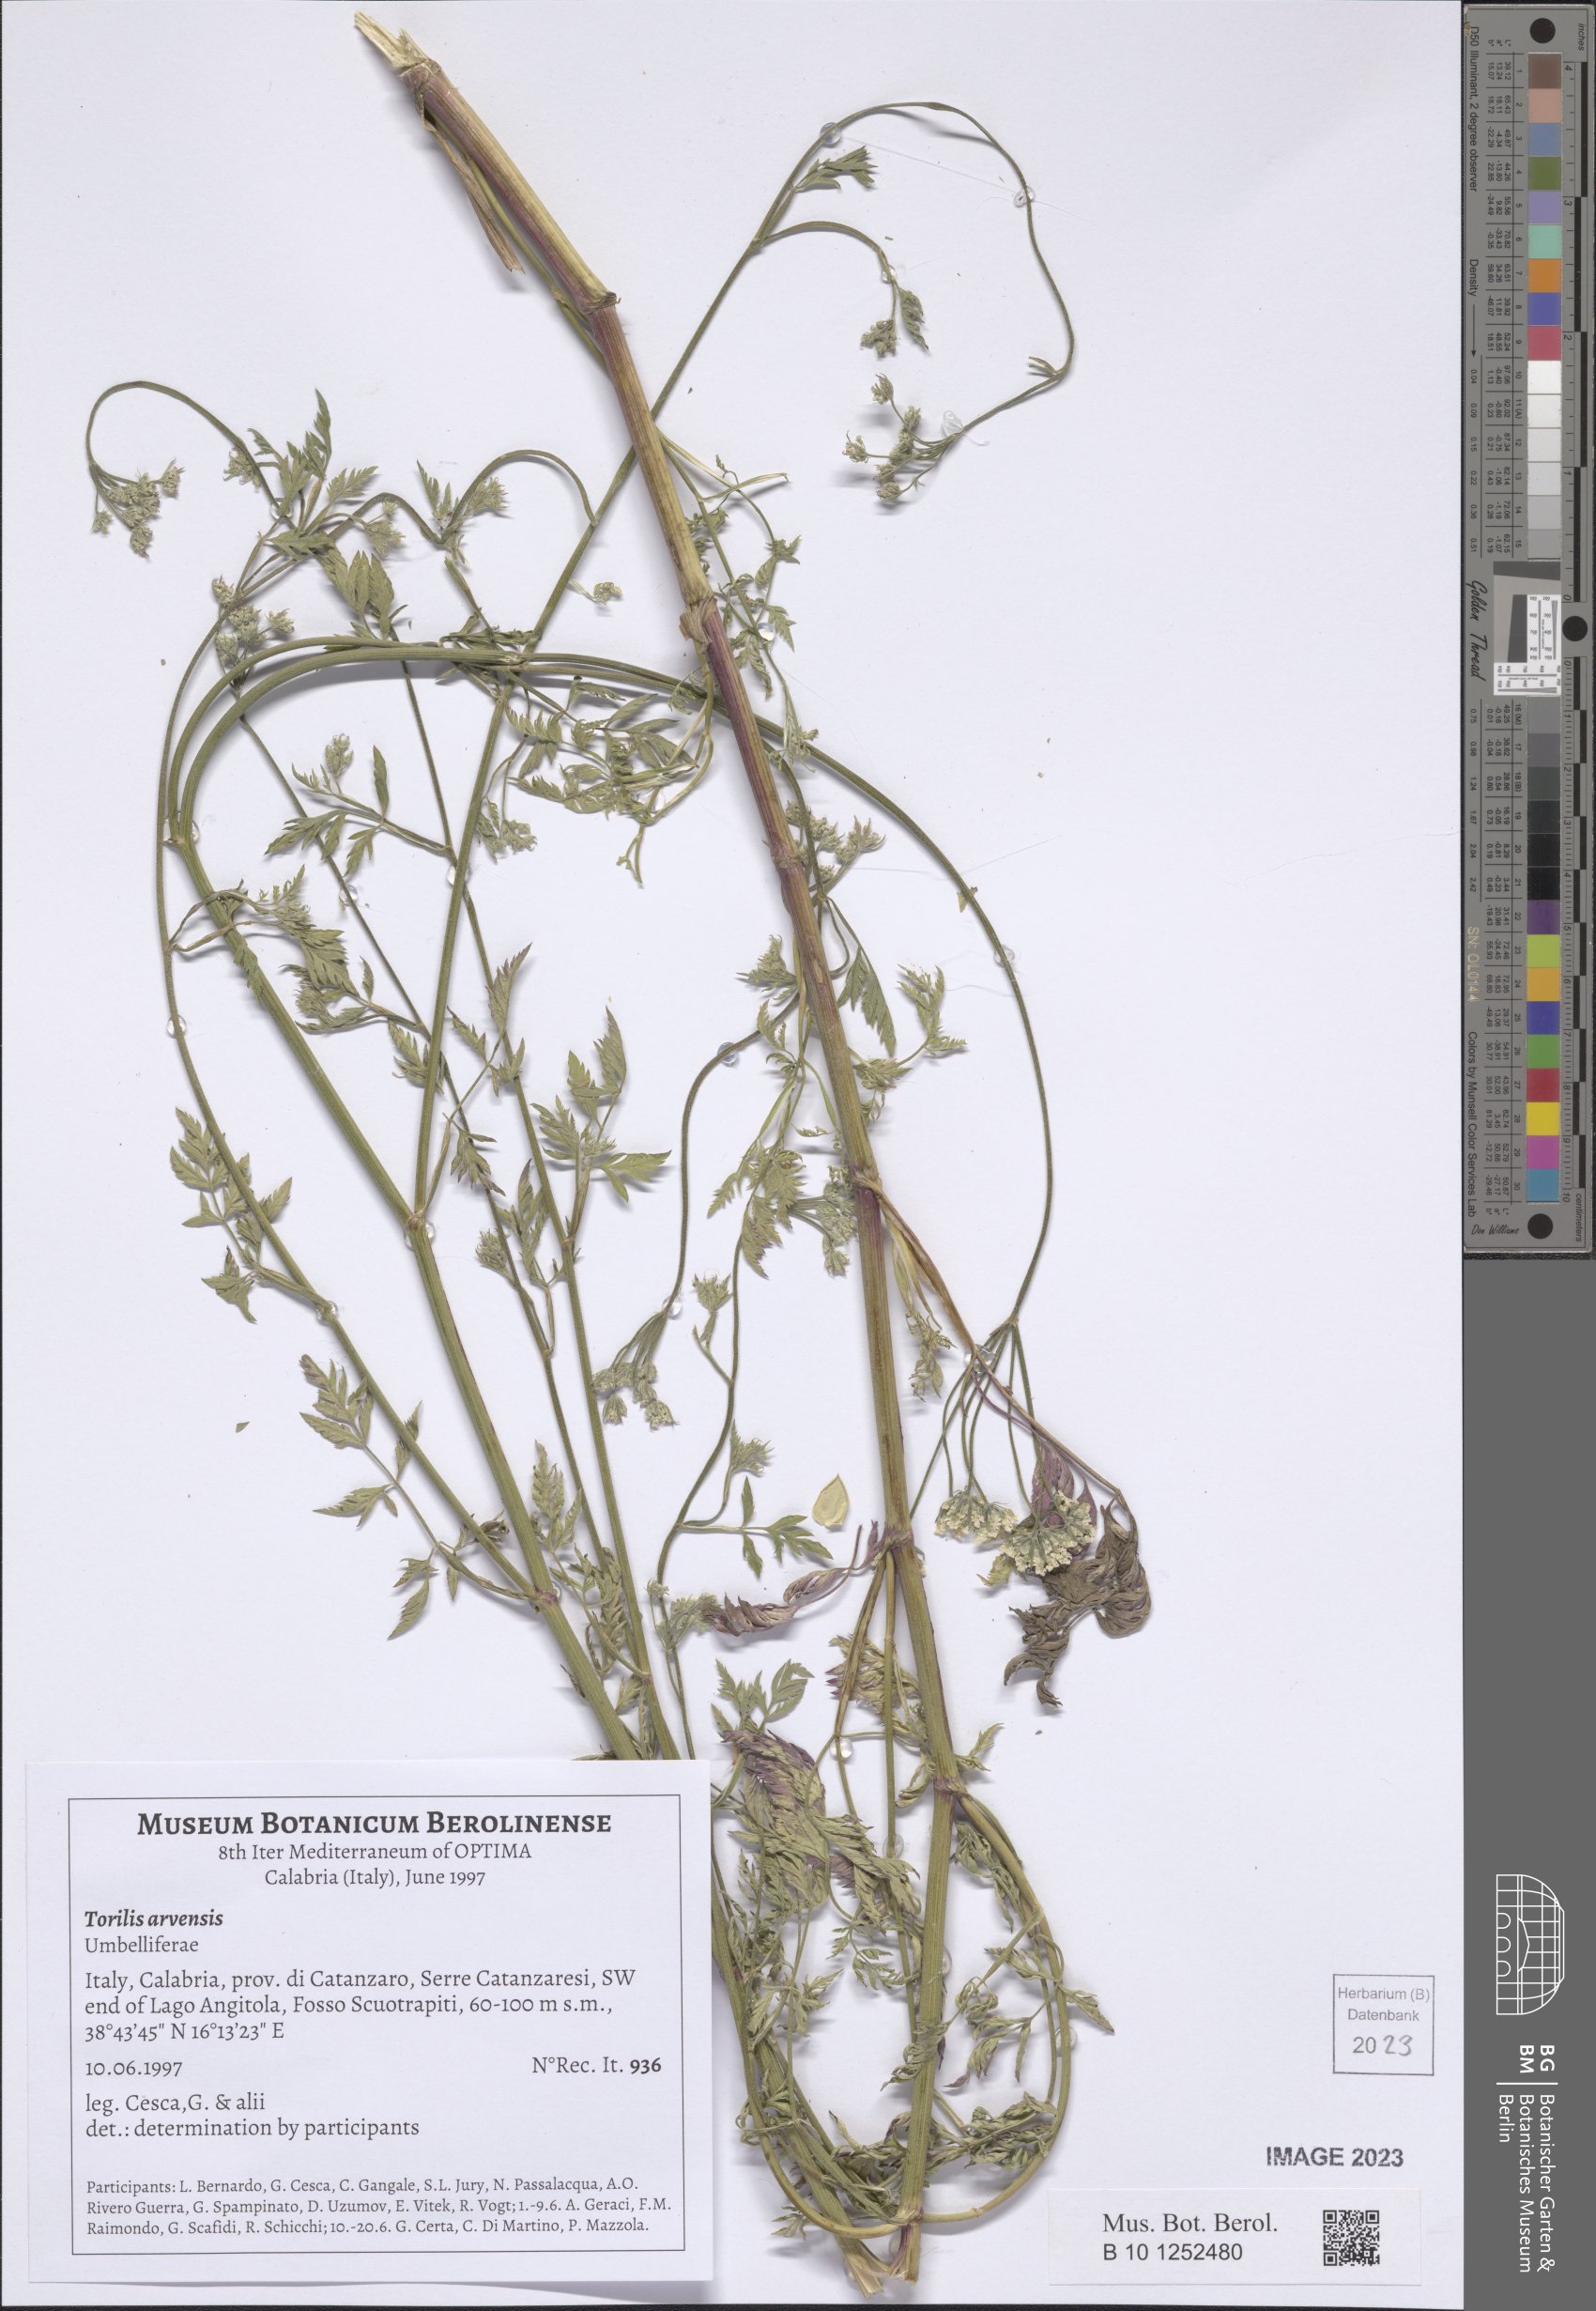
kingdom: Plantae
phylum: Tracheophyta
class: Magnoliopsida
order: Apiales
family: Apiaceae
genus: Torilis
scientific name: Torilis arvensis
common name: Spreading hedge-parsley
